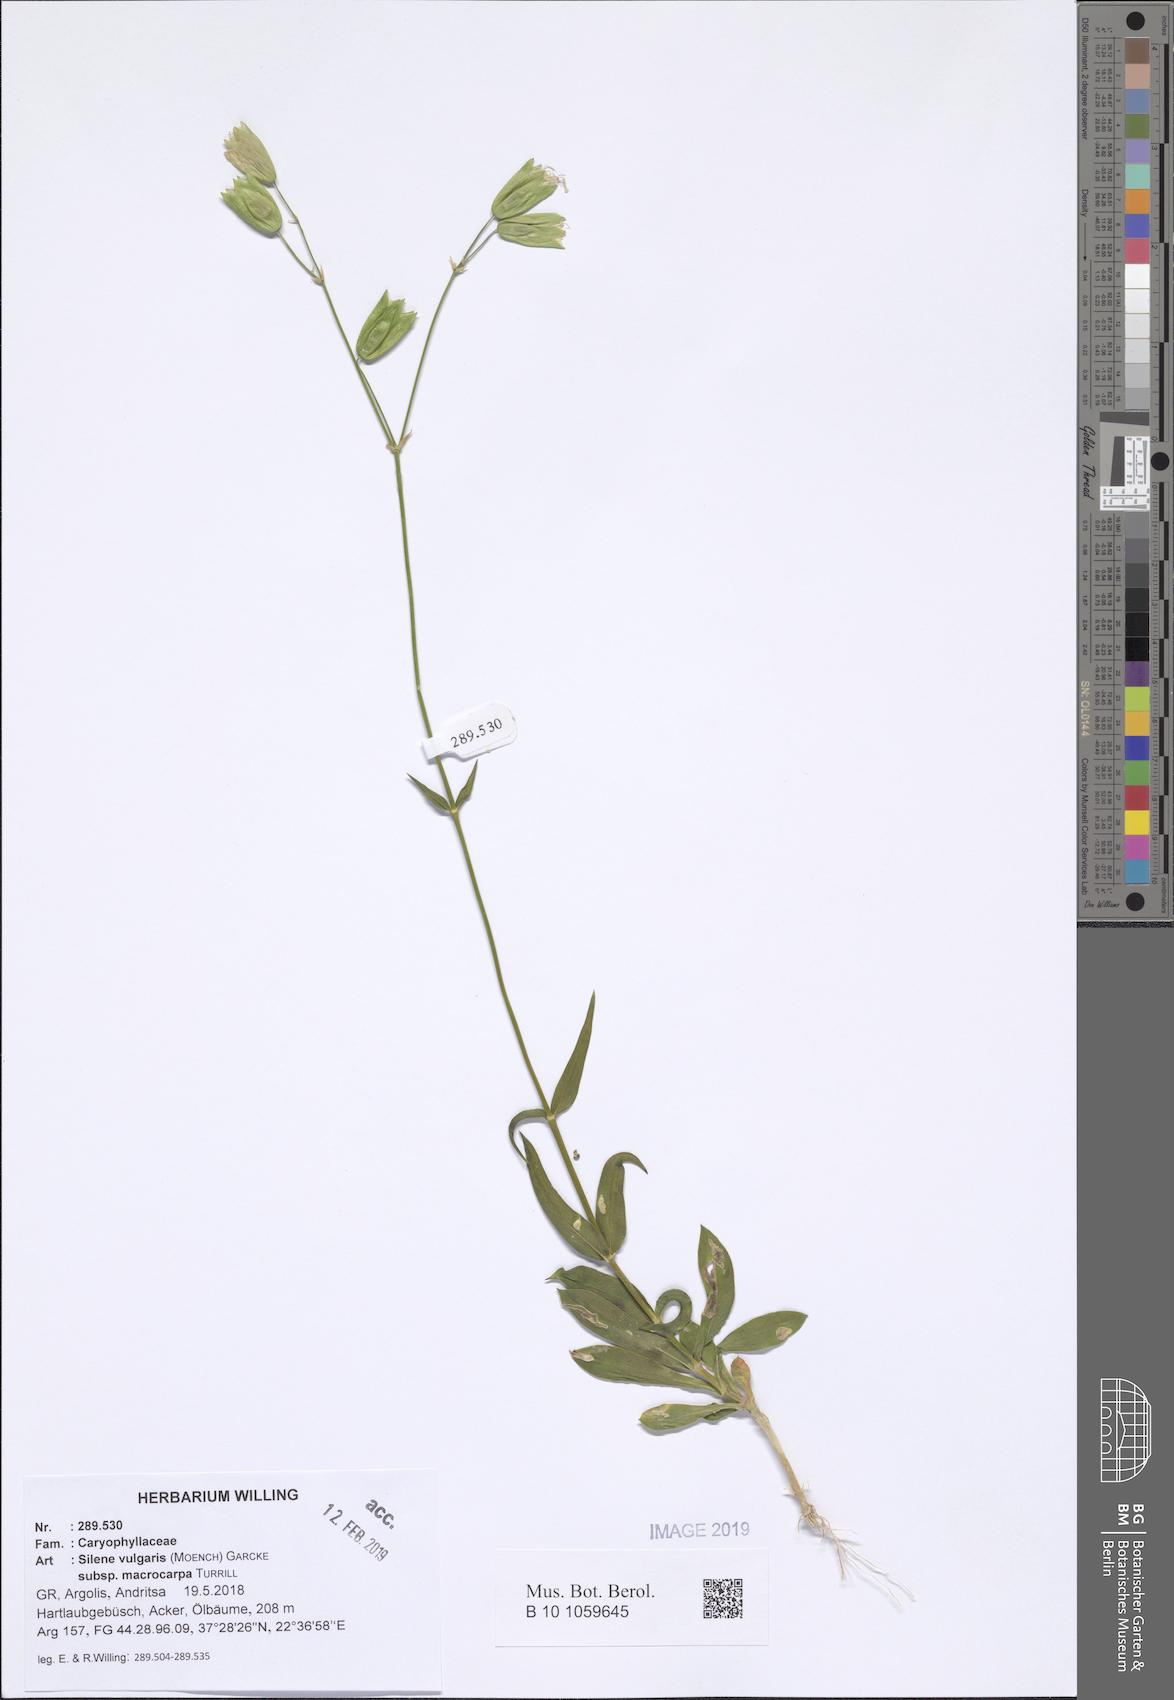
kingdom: Plantae
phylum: Tracheophyta
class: Magnoliopsida
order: Caryophyllales
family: Caryophyllaceae
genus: Silene
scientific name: Silene vulgaris
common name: Bladder campion
